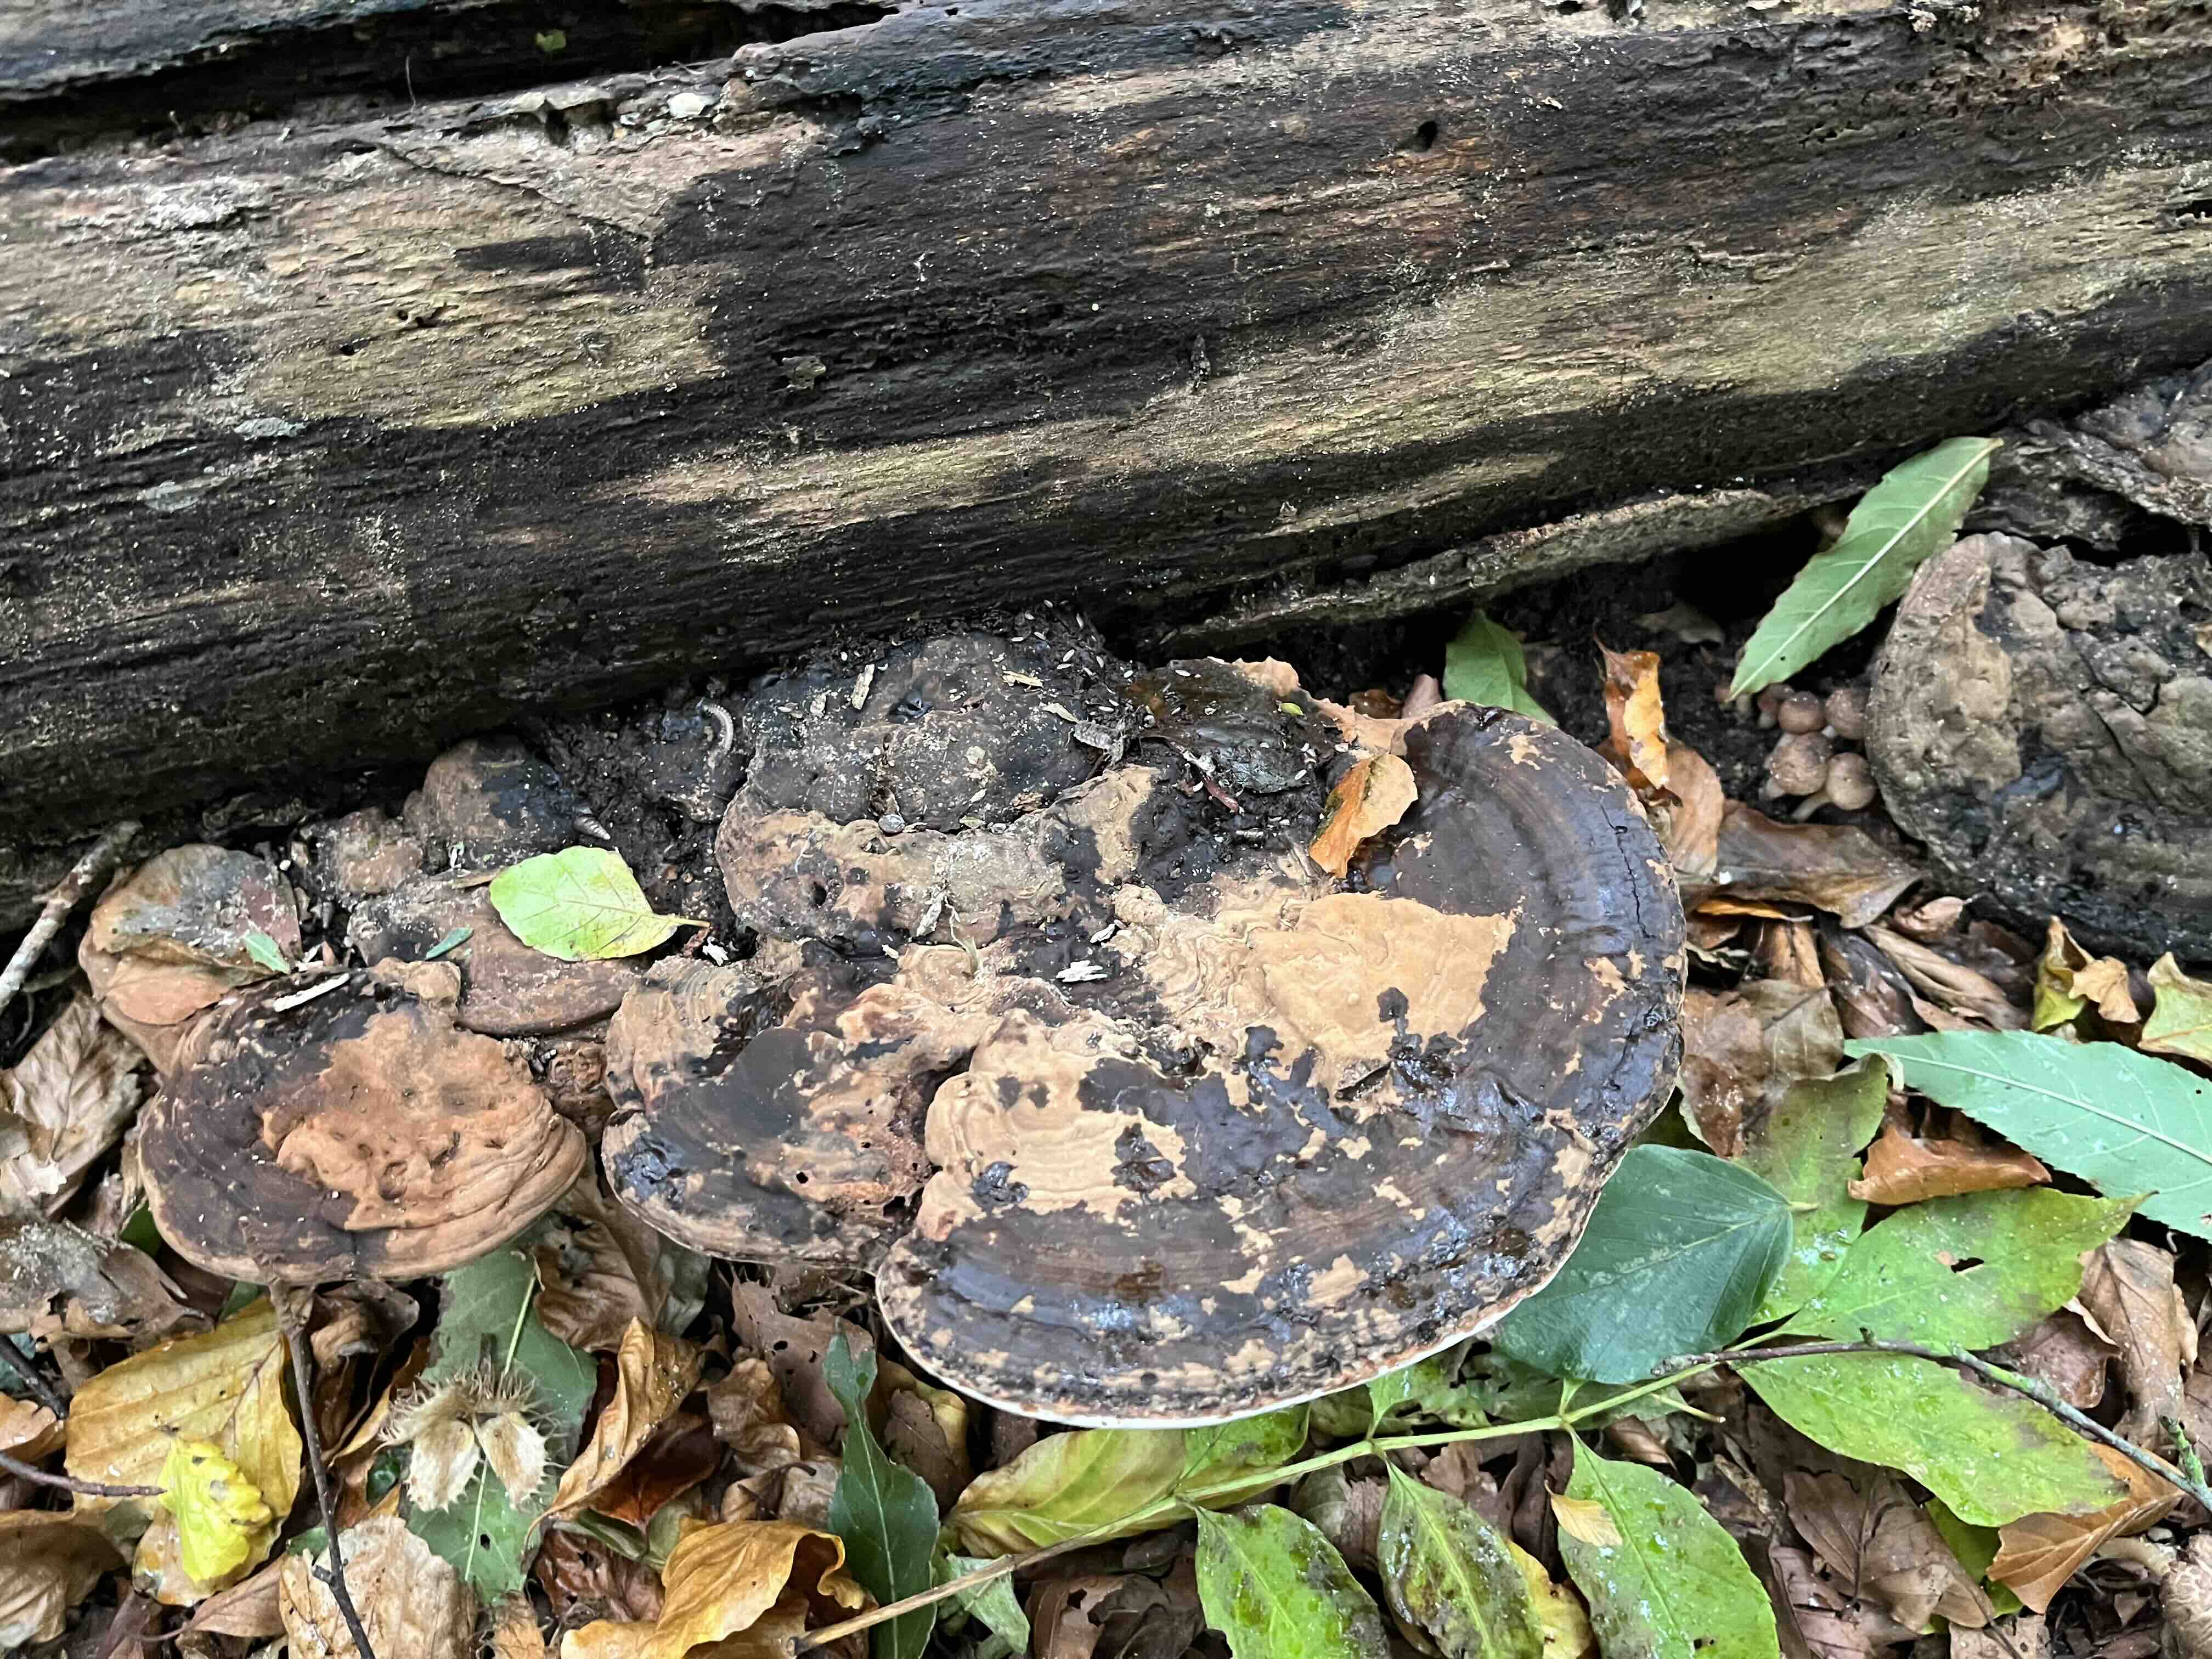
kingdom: Fungi
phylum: Basidiomycota
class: Agaricomycetes
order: Polyporales
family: Polyporaceae
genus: Ganoderma
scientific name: Ganoderma applanatum
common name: flad lakporesvamp
